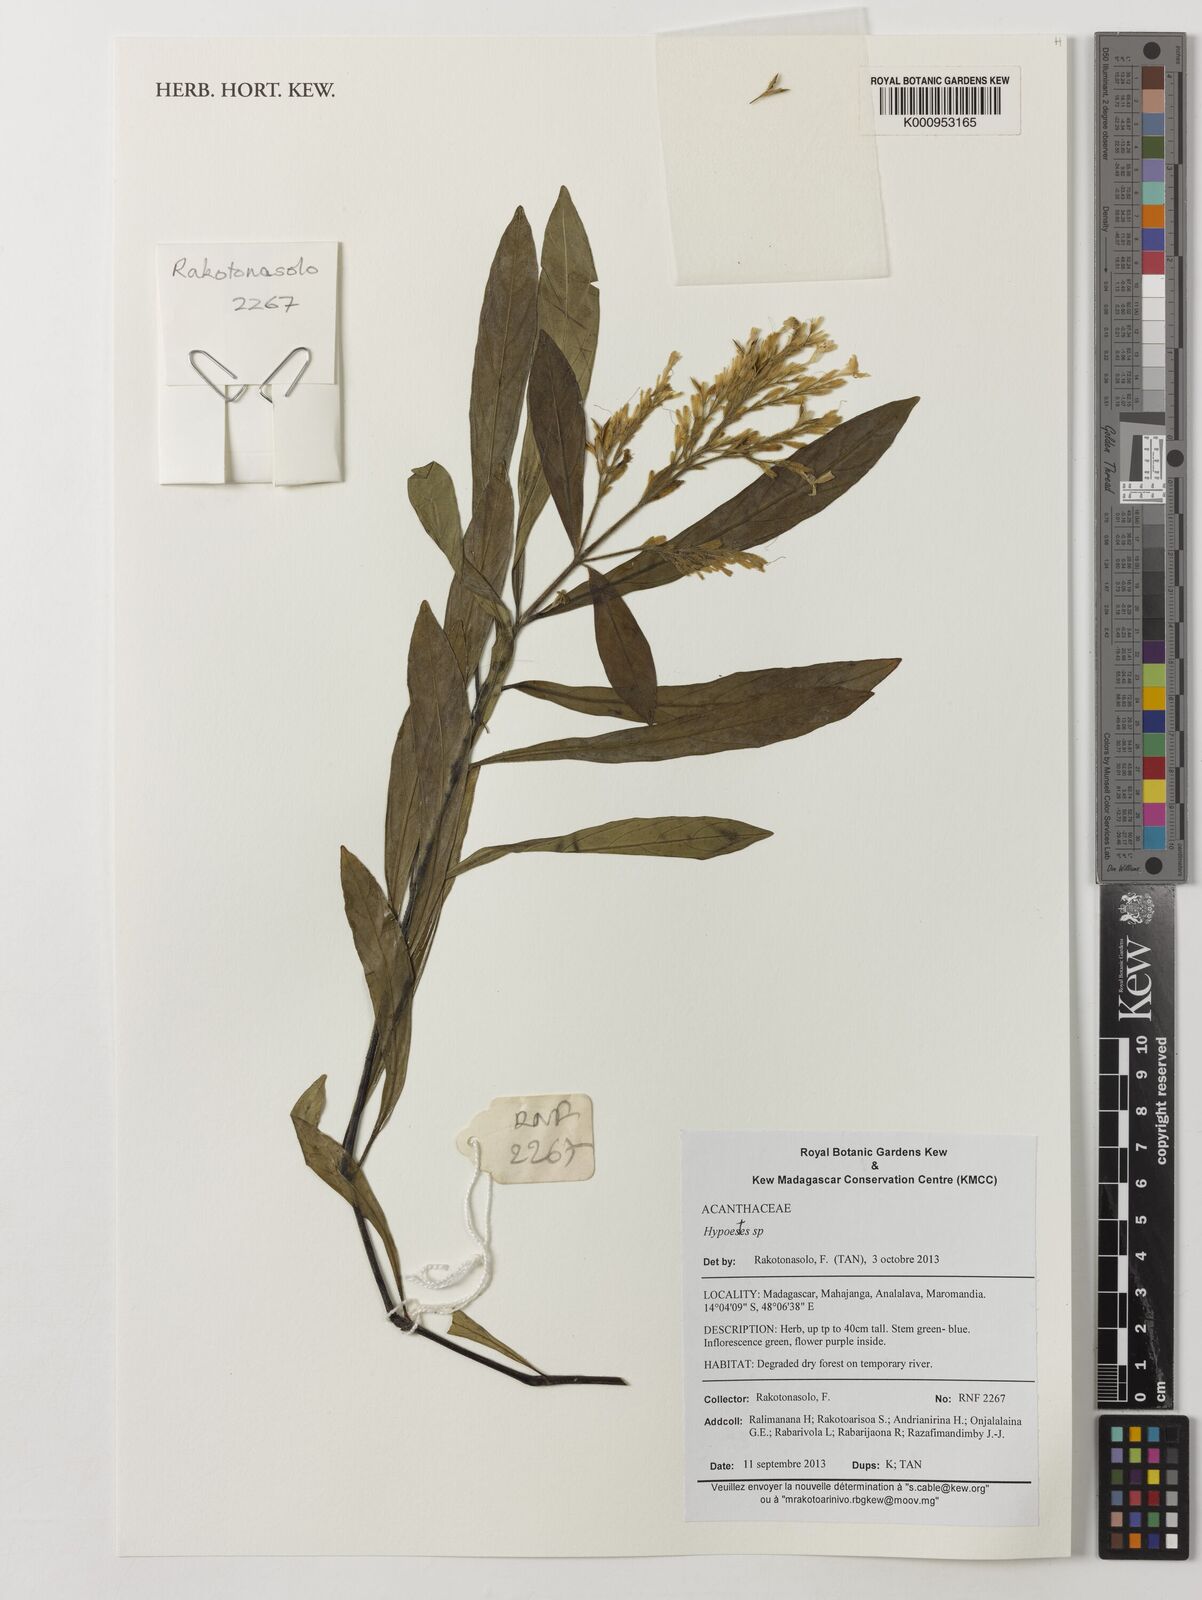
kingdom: Plantae
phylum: Tracheophyta
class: Magnoliopsida
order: Lamiales
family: Acanthaceae
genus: Hypoestes
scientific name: Hypoestes
